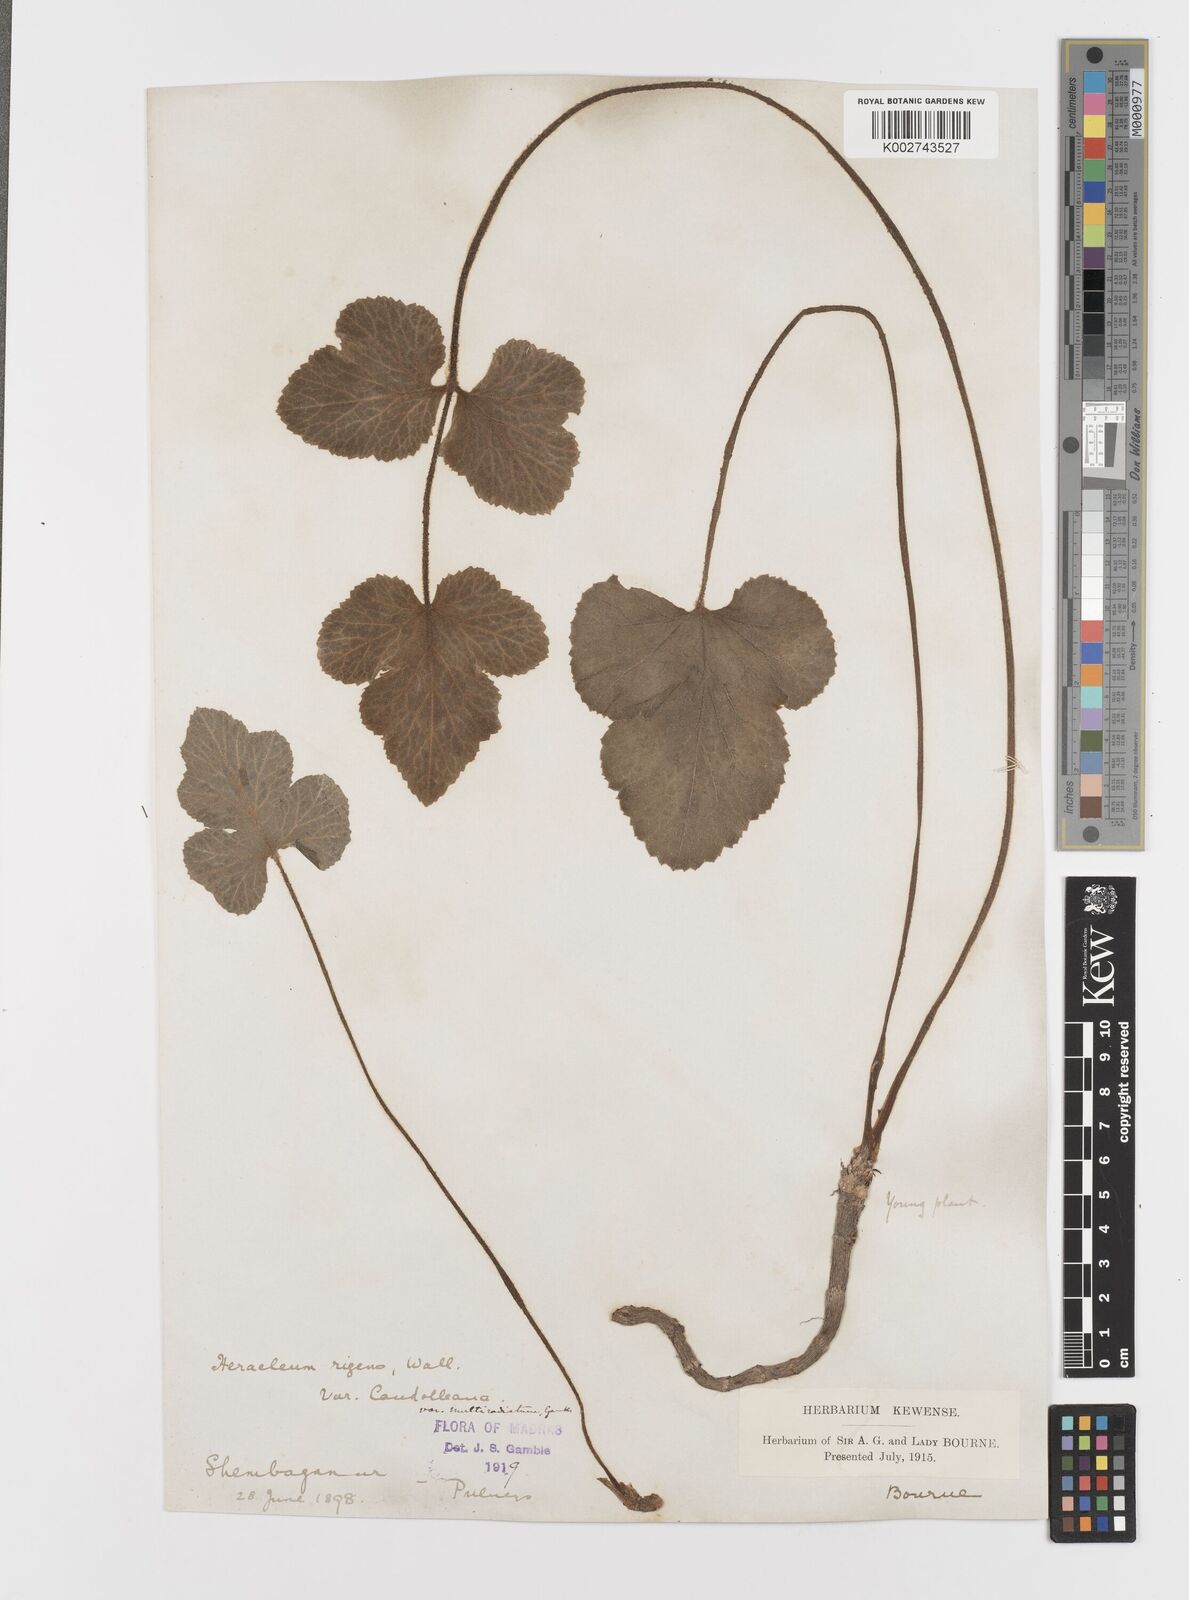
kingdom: Plantae
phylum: Tracheophyta
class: Magnoliopsida
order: Apiales
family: Apiaceae
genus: Tetrataenium
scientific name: Tetrataenium rigens
